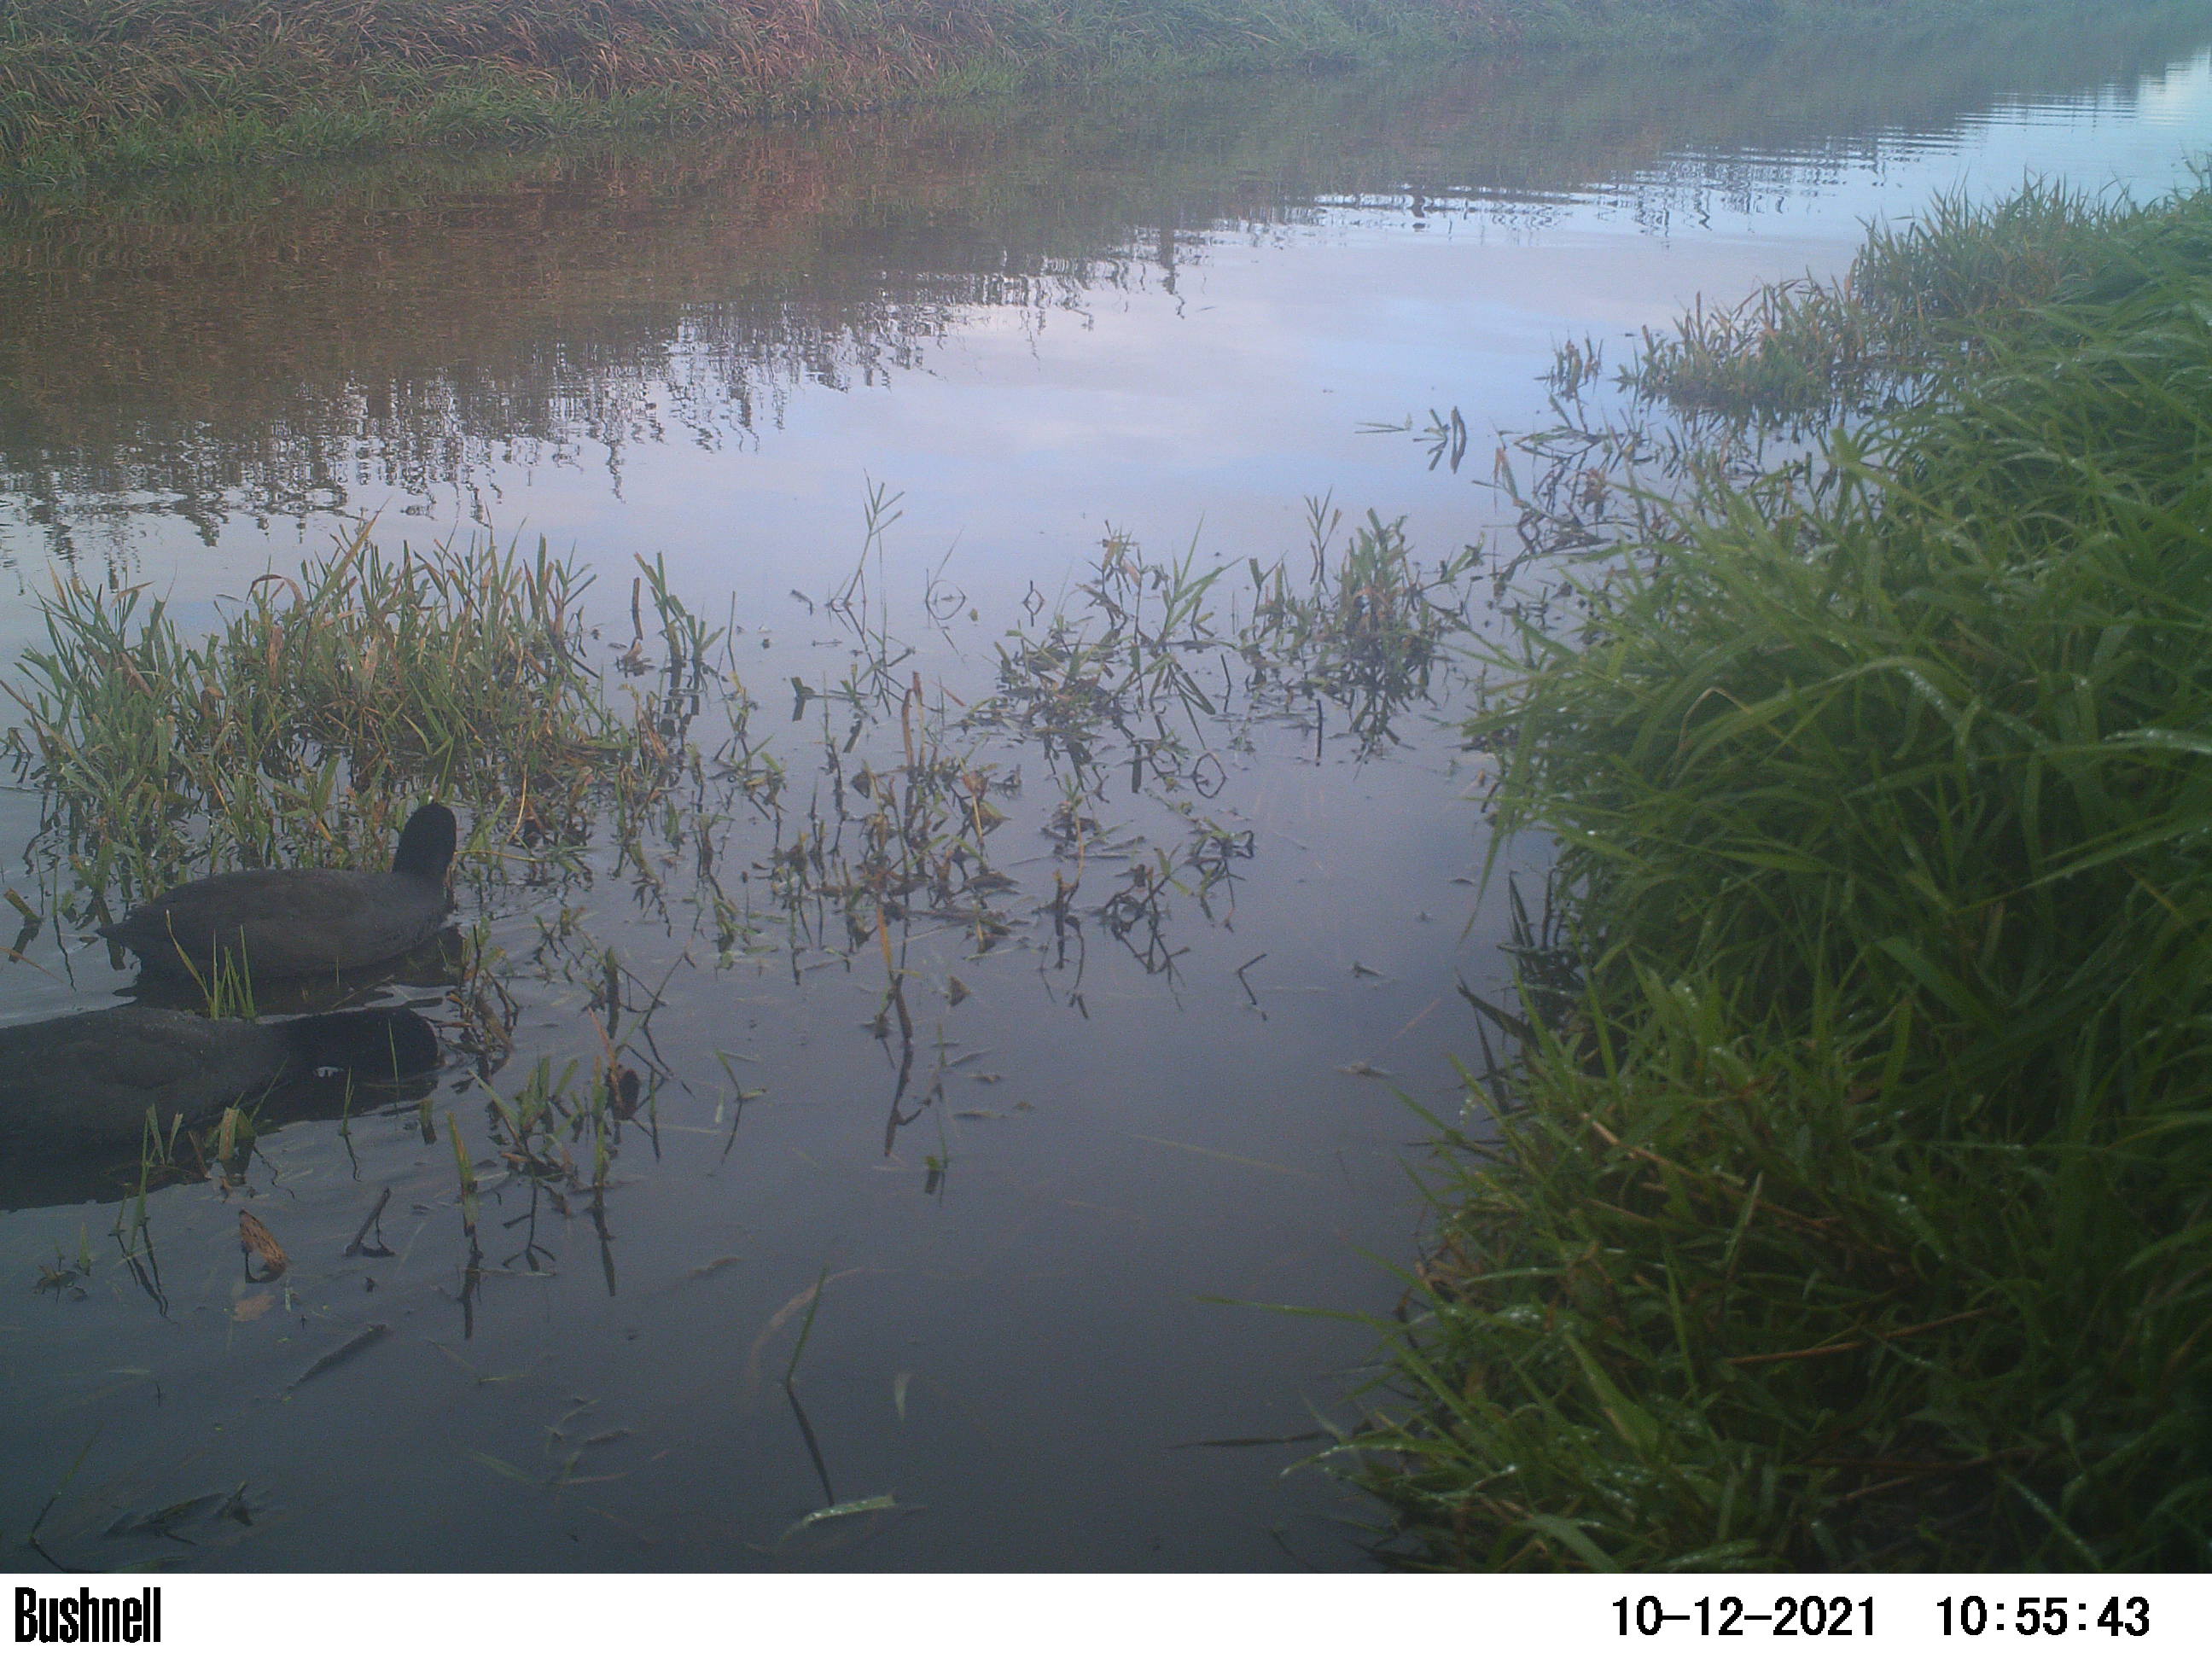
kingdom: Animalia
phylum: Chordata
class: Aves
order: Gruiformes
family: Rallidae
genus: Fulica
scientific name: Fulica atra
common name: Eurasian coot
